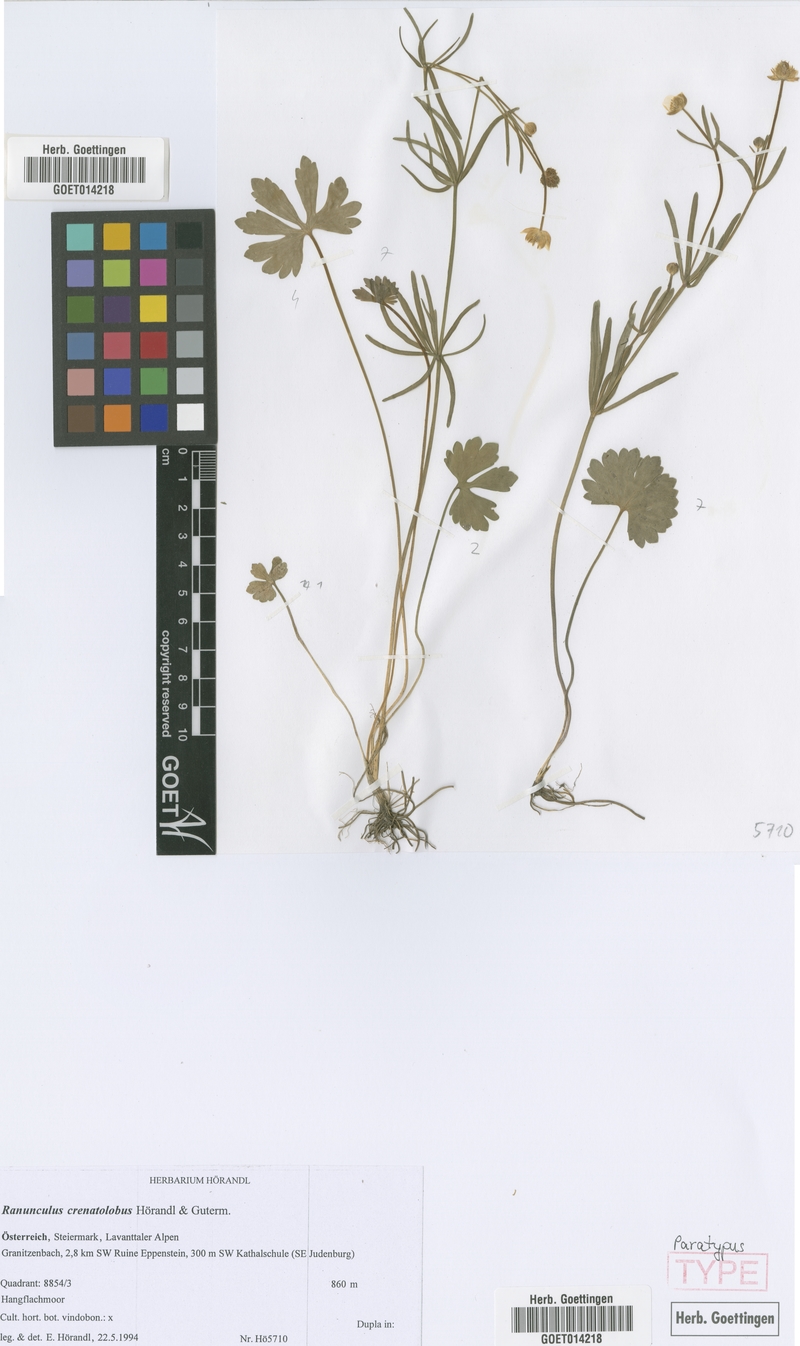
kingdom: Plantae
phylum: Tracheophyta
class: Magnoliopsida
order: Ranunculales
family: Ranunculaceae
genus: Ranunculus
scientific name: Ranunculus crenatolobus
